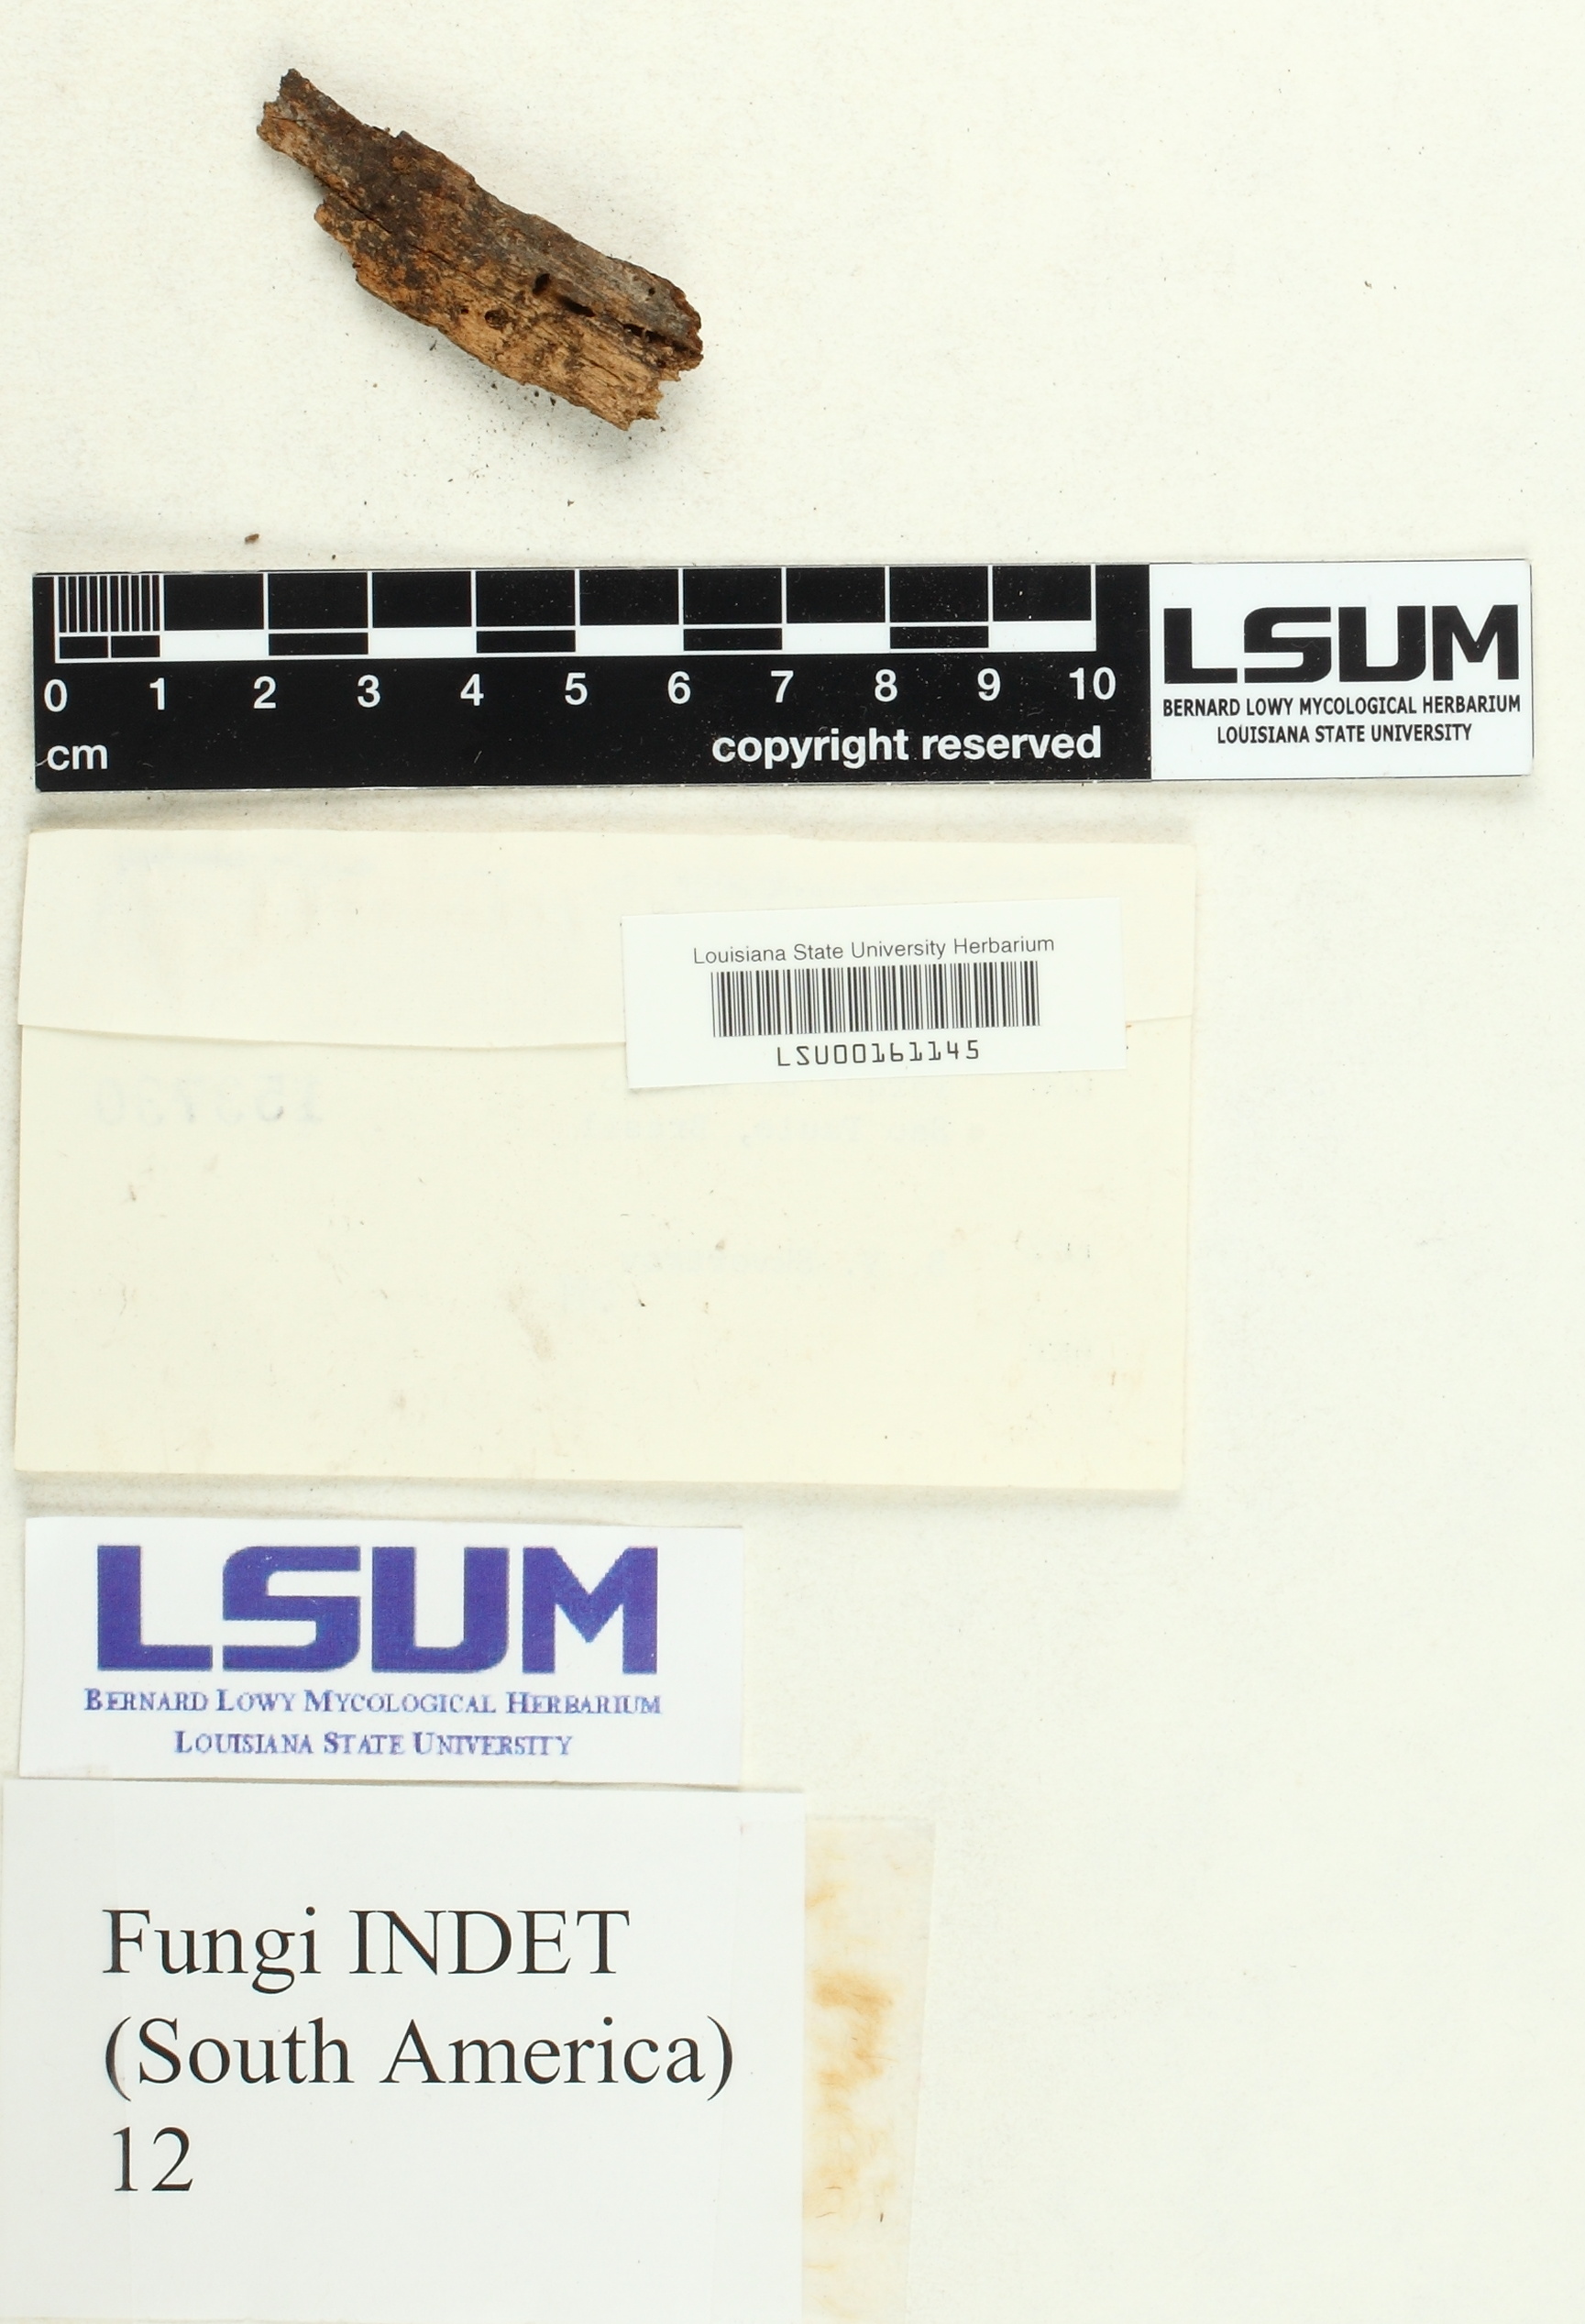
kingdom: Fungi
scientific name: Fungi
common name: Fungi
